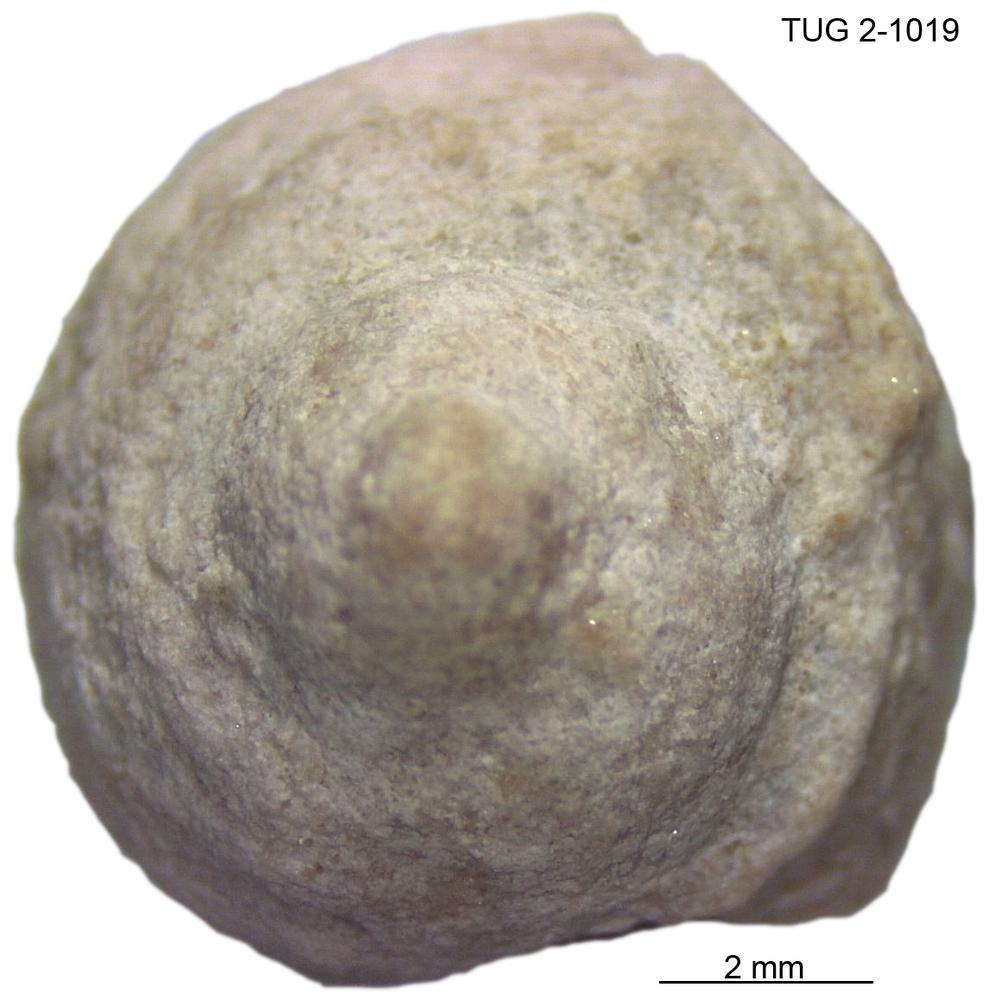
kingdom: Animalia
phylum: Mollusca
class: Gastropoda
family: Trochonematidae
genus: Trochonema
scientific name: Trochonema panderi
